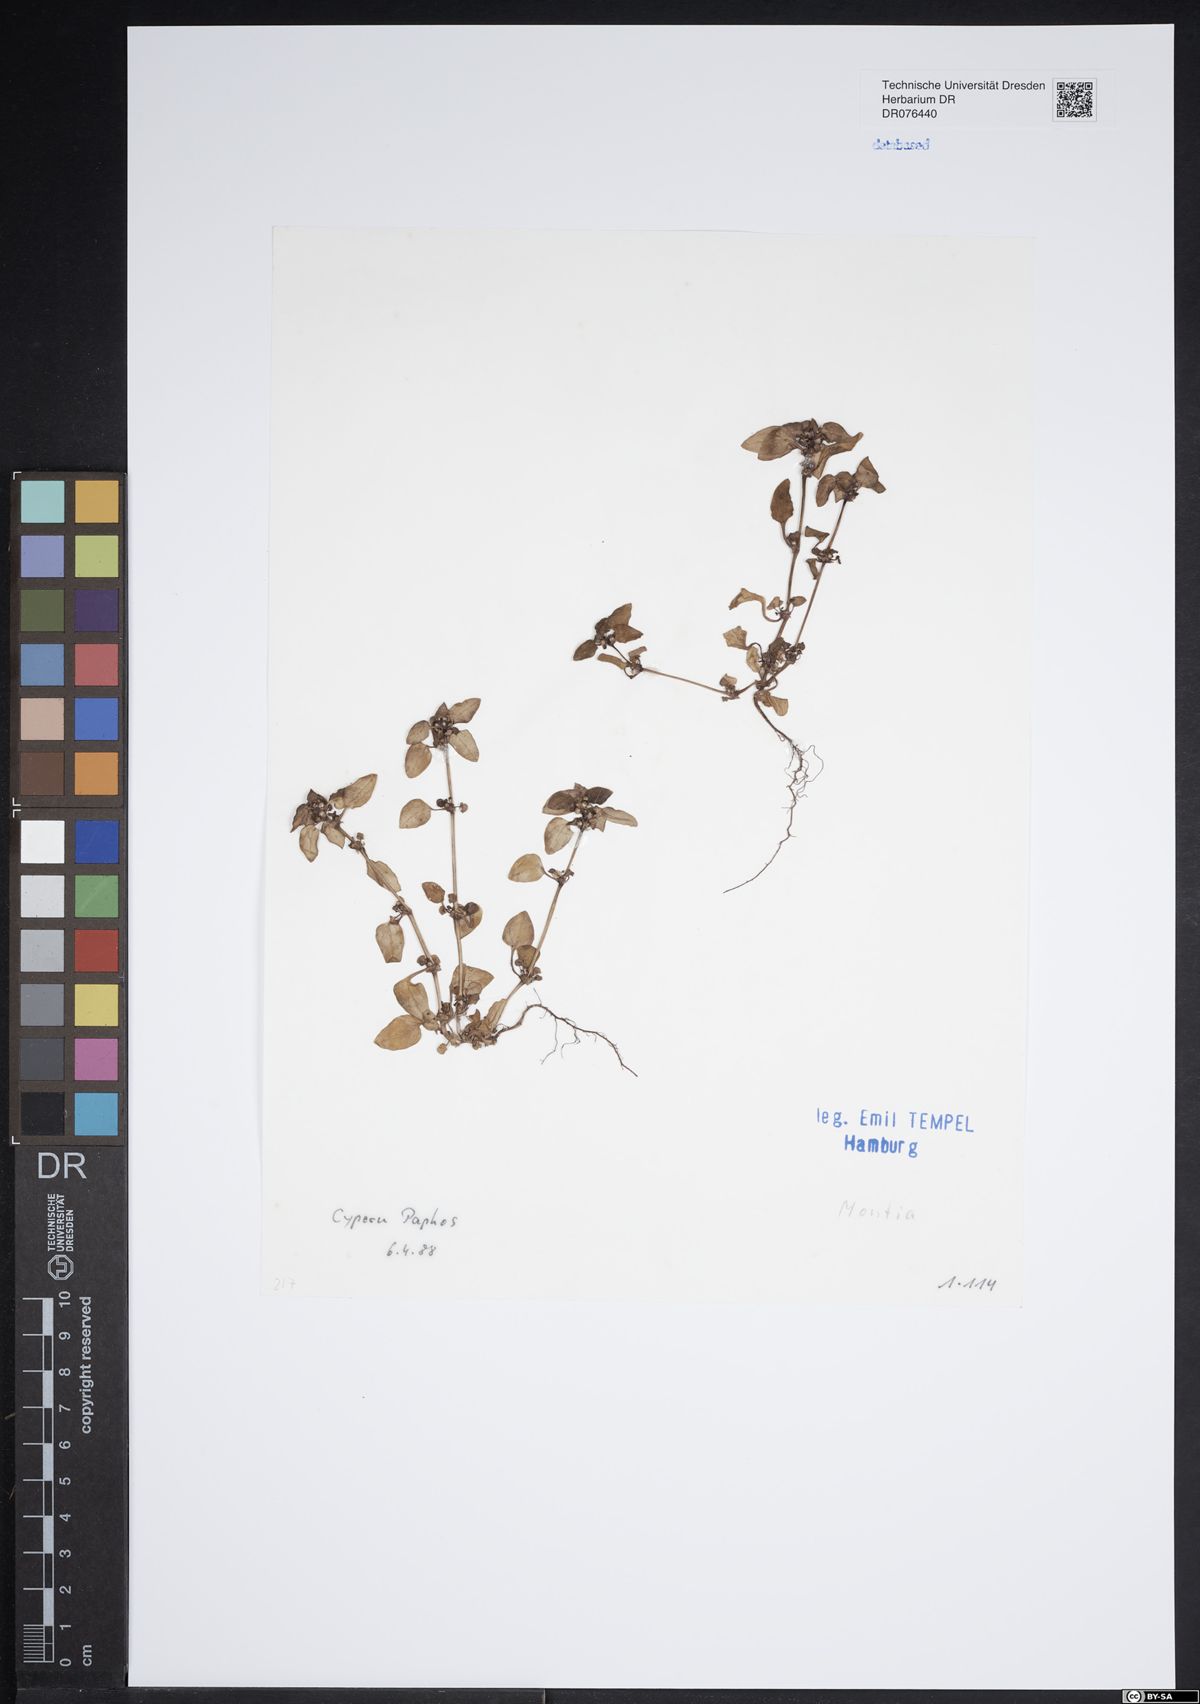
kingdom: Plantae
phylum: Tracheophyta
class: Magnoliopsida
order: Caryophyllales
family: Montiaceae
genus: Montia
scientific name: Montia
